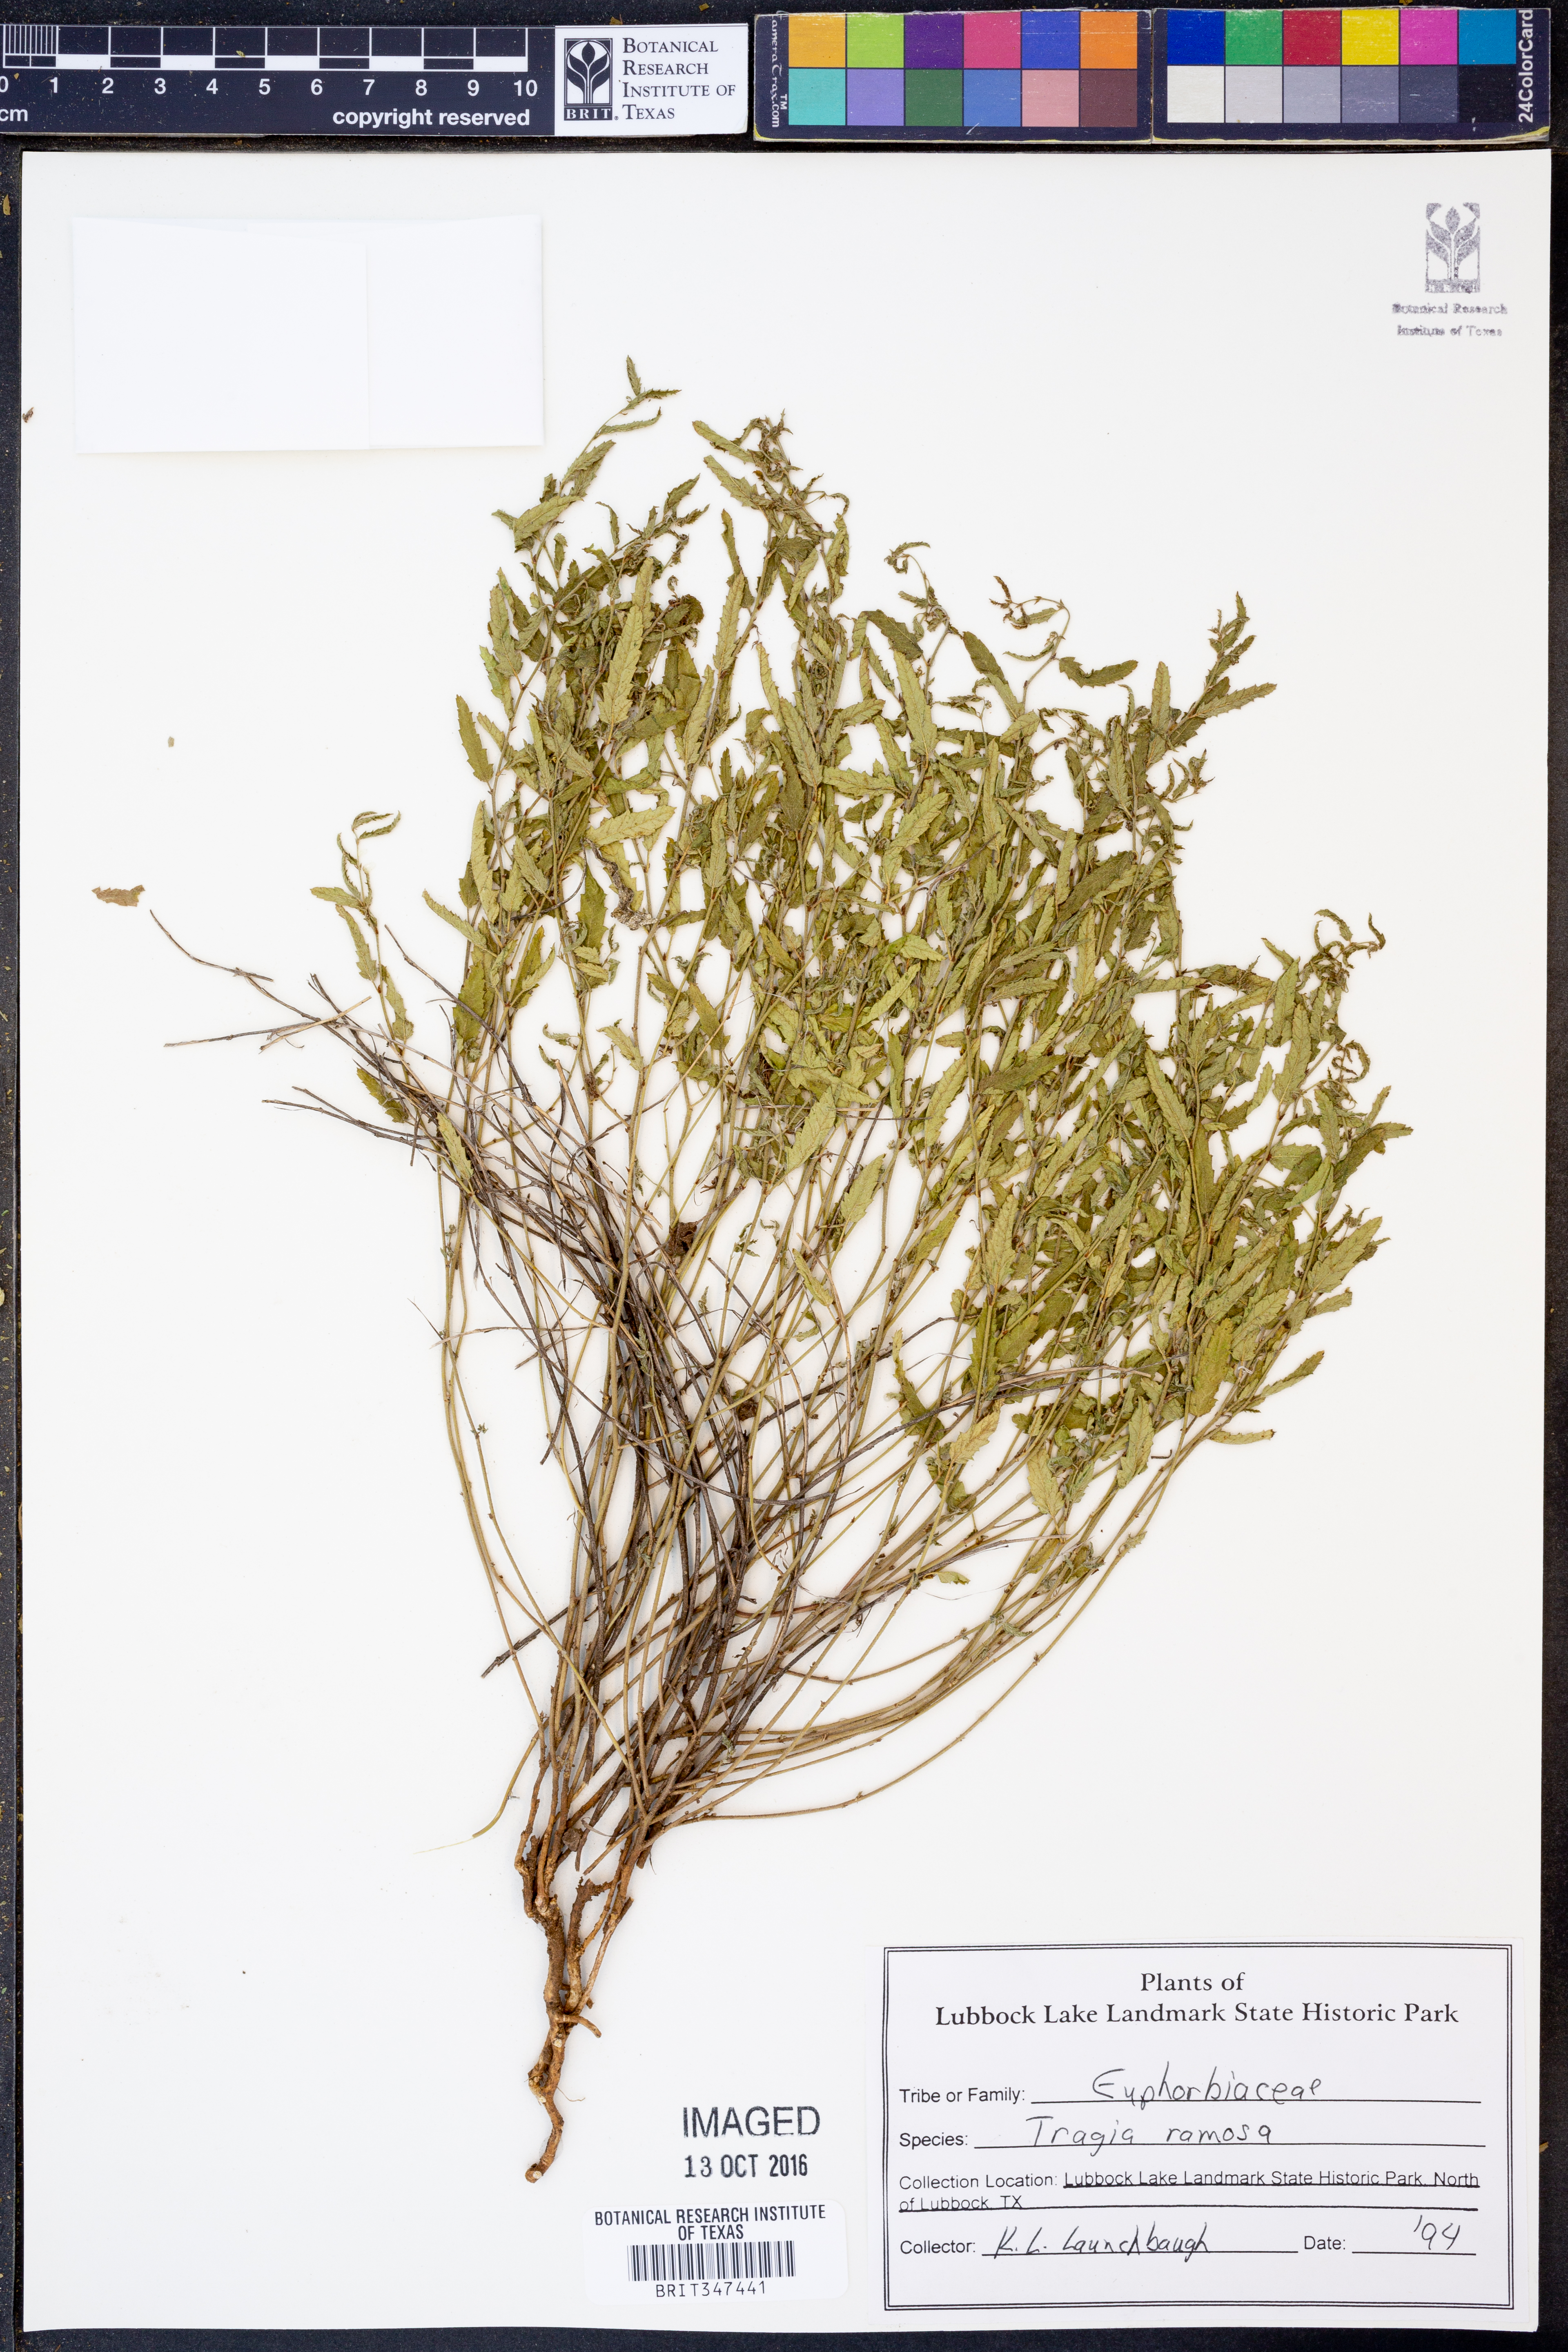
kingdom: Plantae
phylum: Tracheophyta
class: Magnoliopsida
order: Malpighiales
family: Euphorbiaceae
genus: Tragia
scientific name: Tragia ramosa
